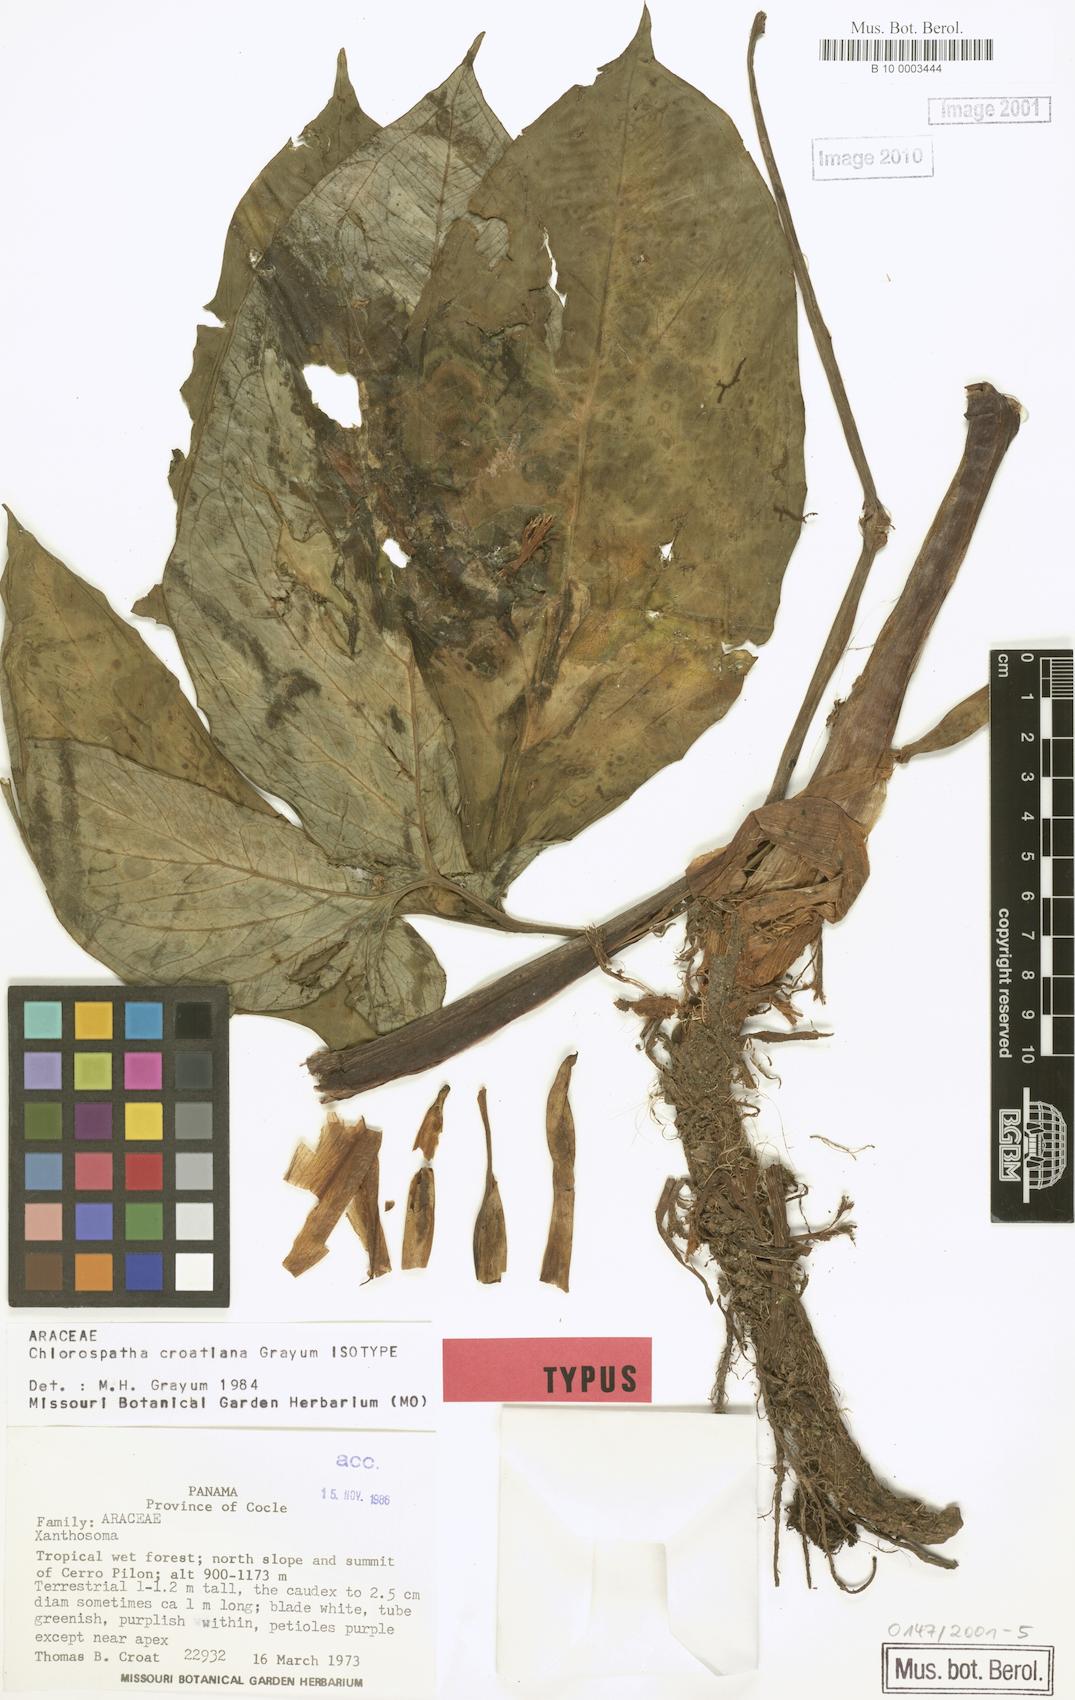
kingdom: Plantae
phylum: Tracheophyta
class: Liliopsida
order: Alismatales
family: Araceae
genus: Chlorospatha
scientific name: Chlorospatha croatiana
